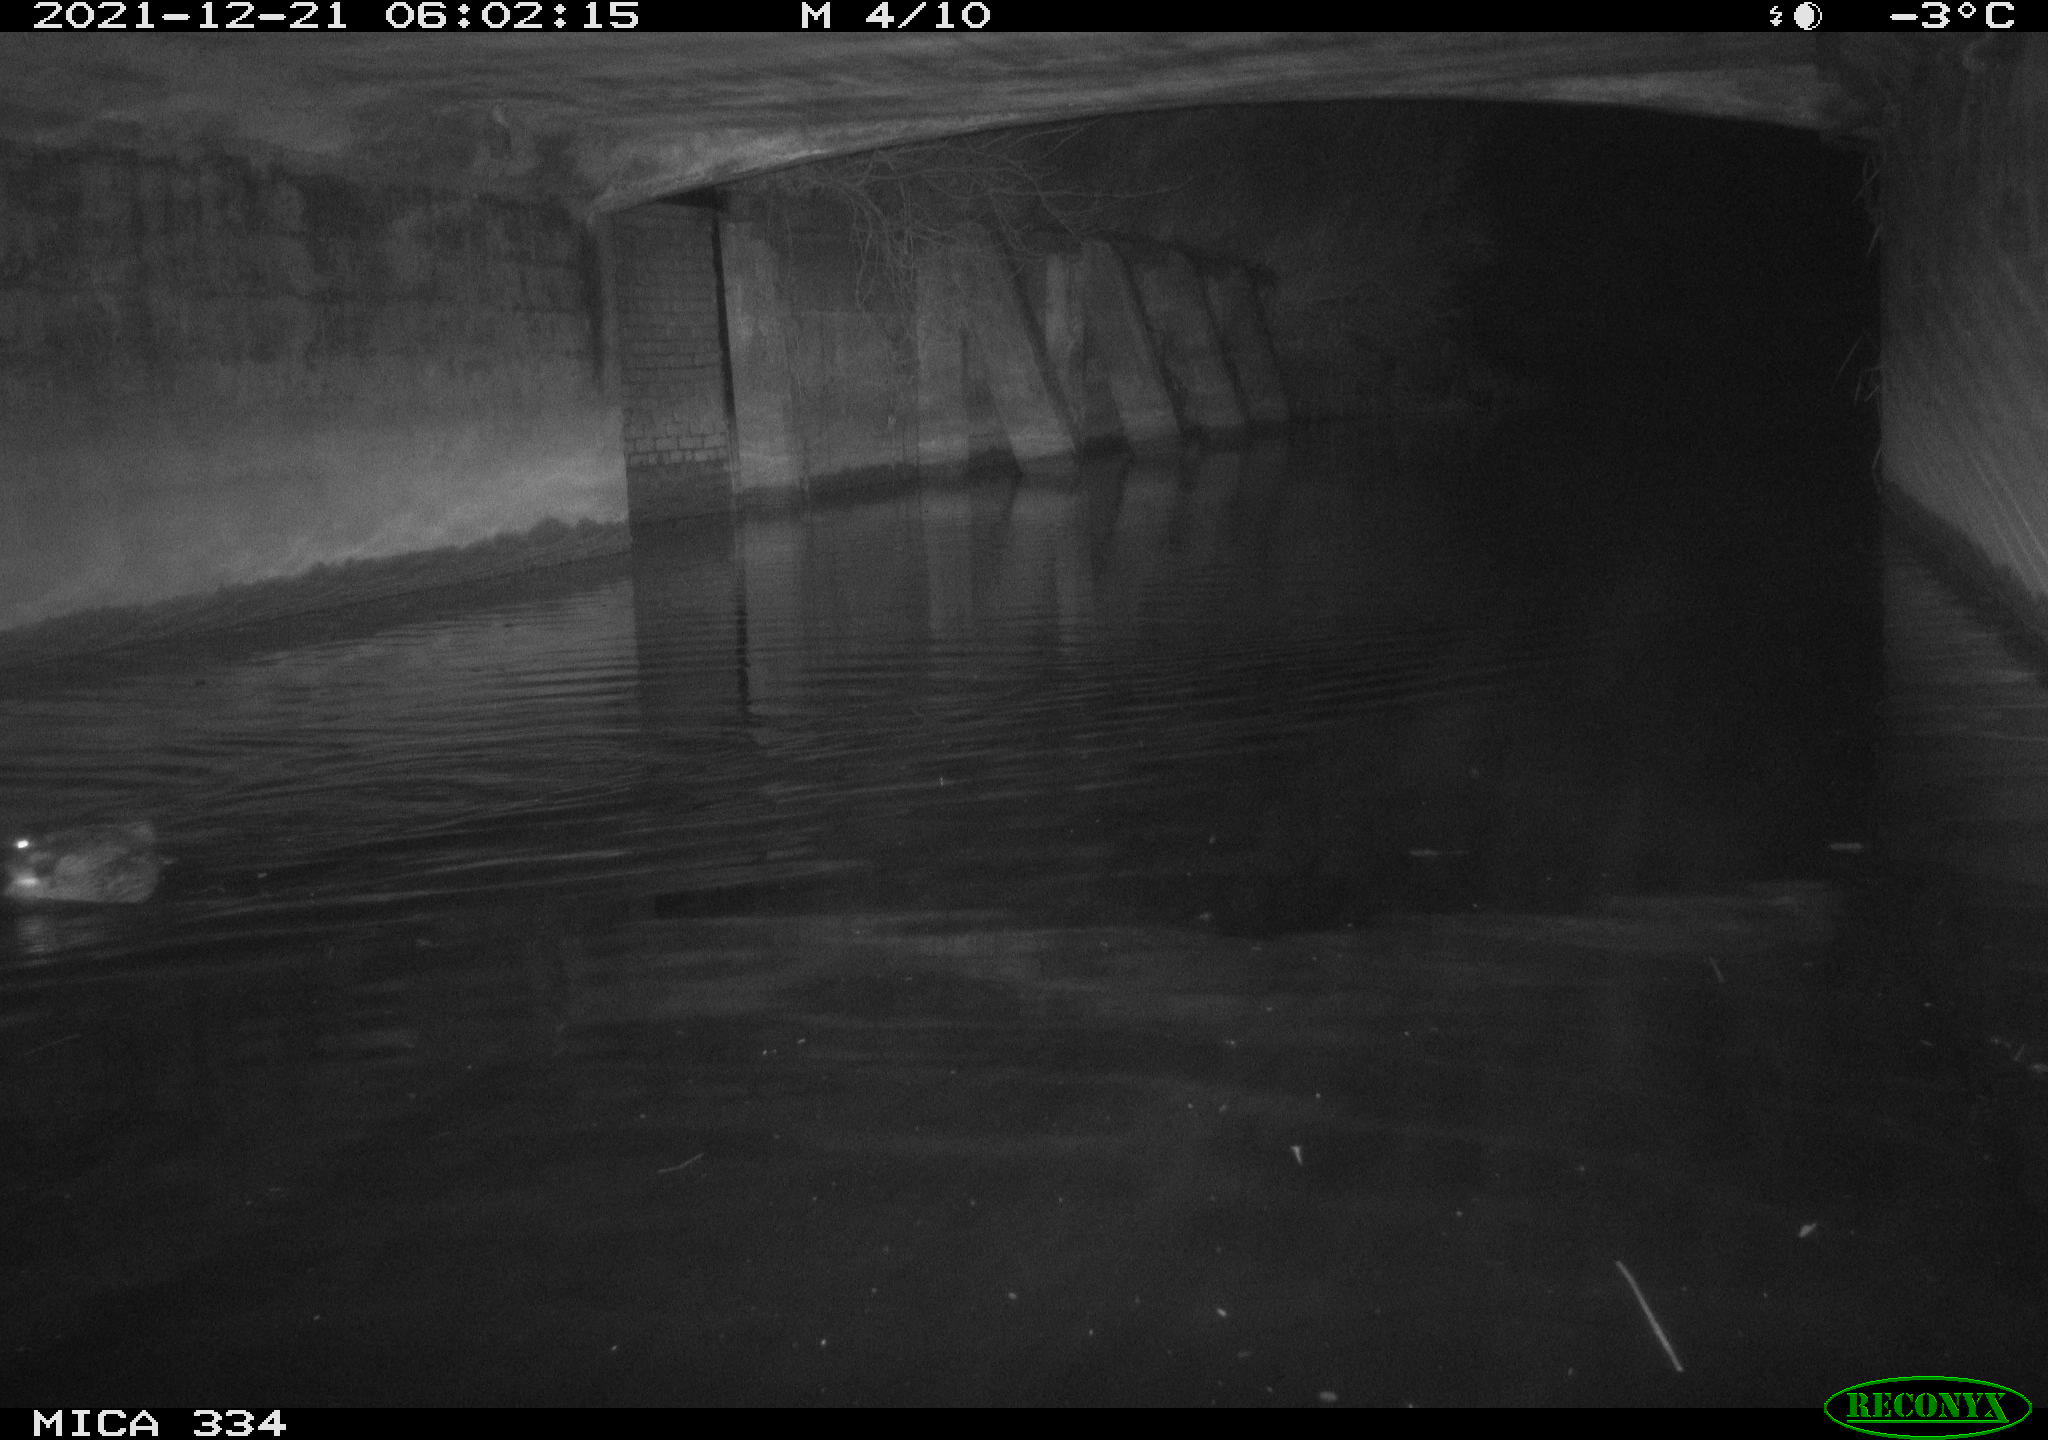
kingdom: Animalia
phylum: Chordata
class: Aves
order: Anseriformes
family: Anatidae
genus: Anas
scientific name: Anas platyrhynchos
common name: Mallard
